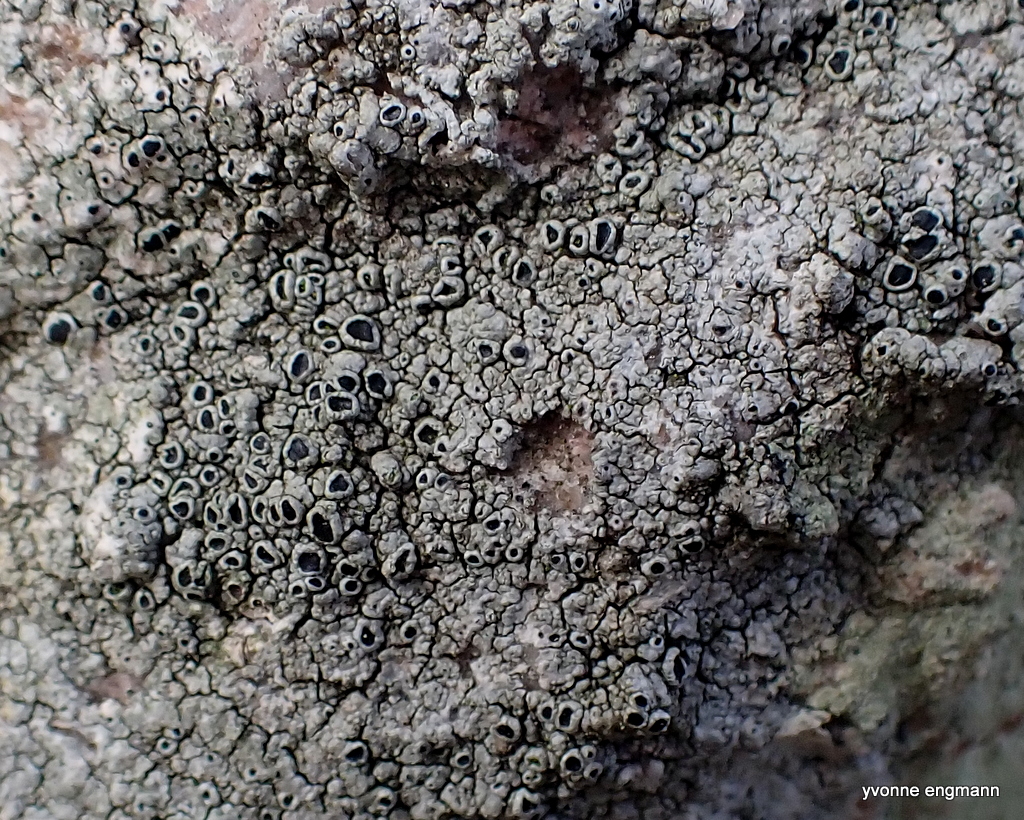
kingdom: Fungi
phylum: Ascomycota
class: Lecanoromycetes
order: Lecanorales
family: Tephromelataceae
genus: Tephromela
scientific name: Tephromela atra
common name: sortfrugtet kantskivelav
